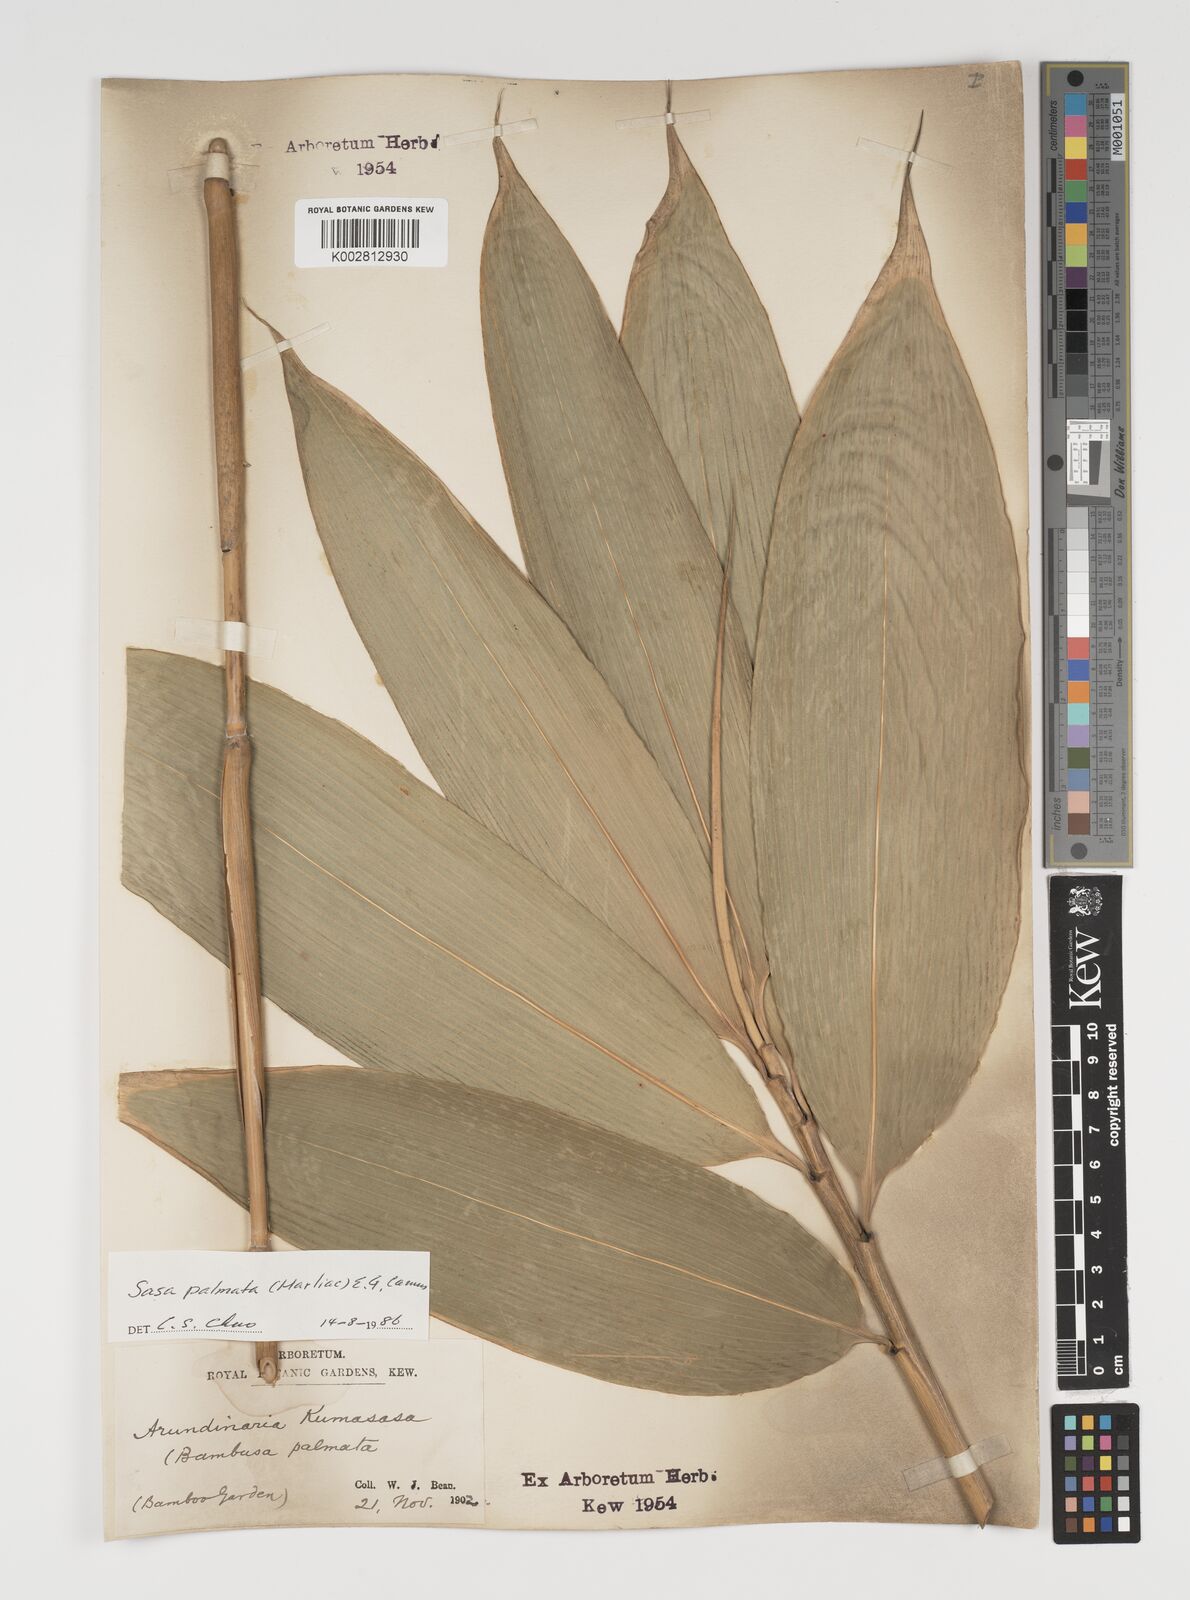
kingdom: Plantae
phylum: Tracheophyta
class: Liliopsida
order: Poales
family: Poaceae
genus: Sasa
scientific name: Sasa palmata
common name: Broad-leaved bamboo
